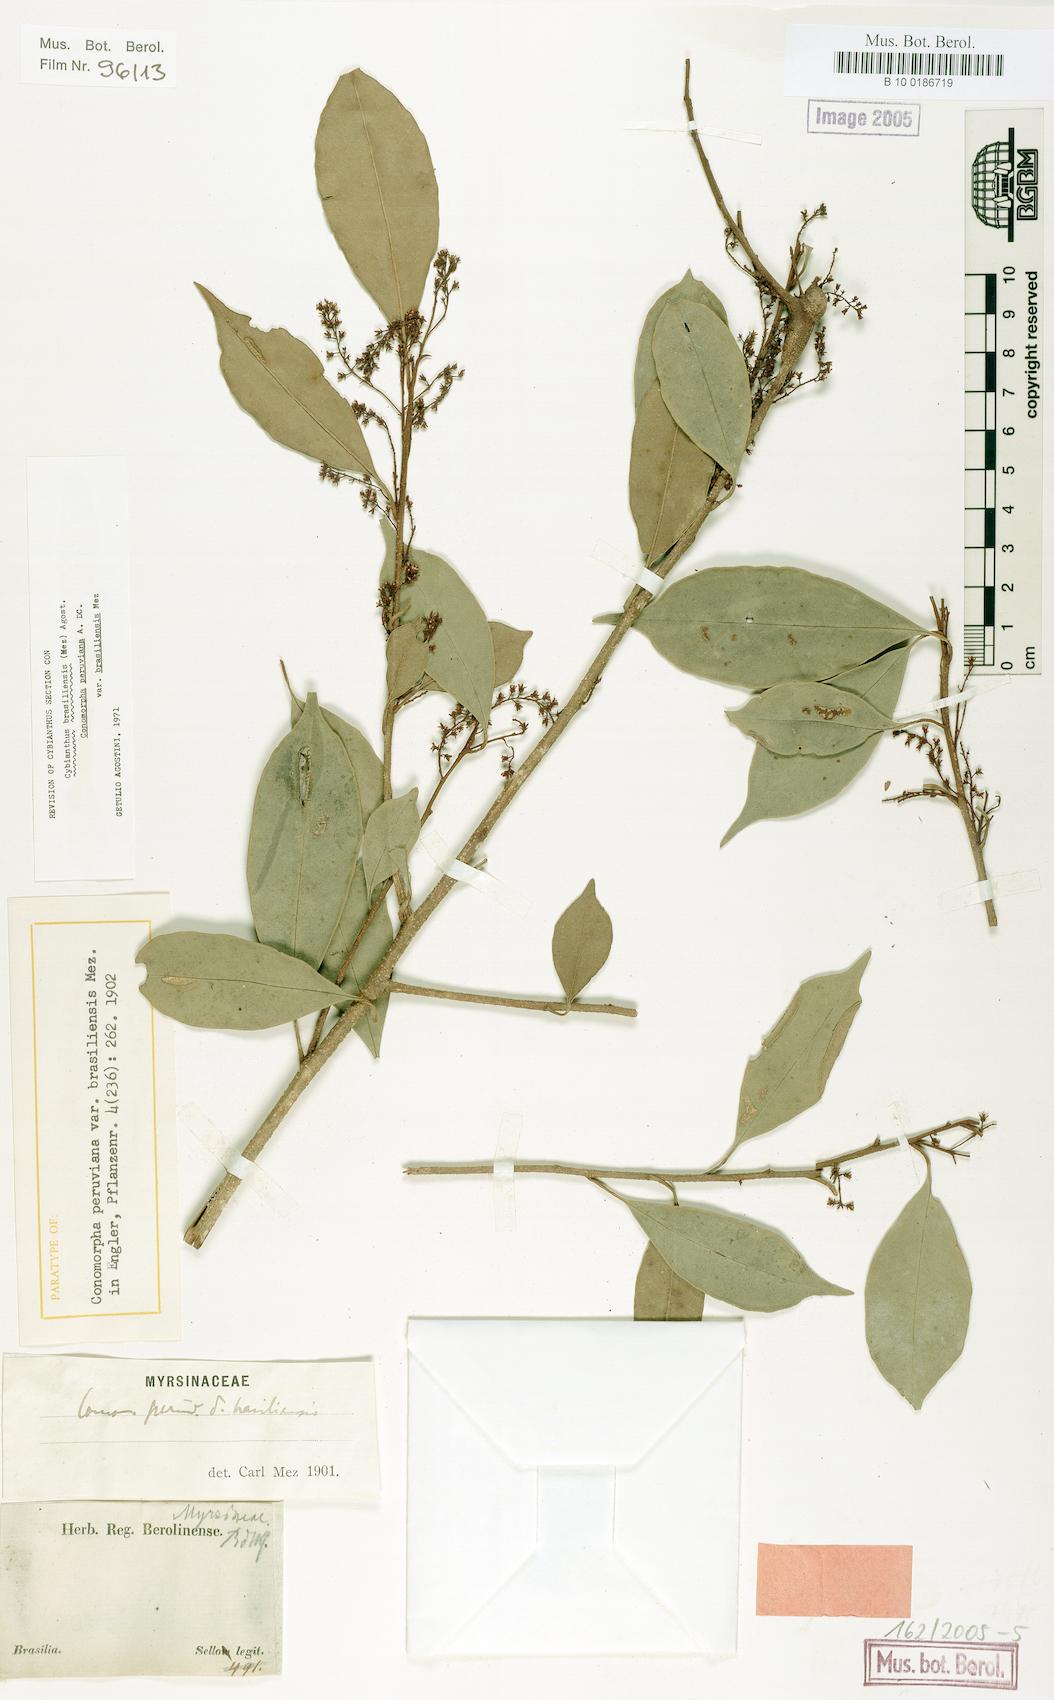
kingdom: Plantae
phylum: Tracheophyta
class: Magnoliopsida
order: Ericales
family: Primulaceae
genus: Cybianthus
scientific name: Cybianthus peruvianus
